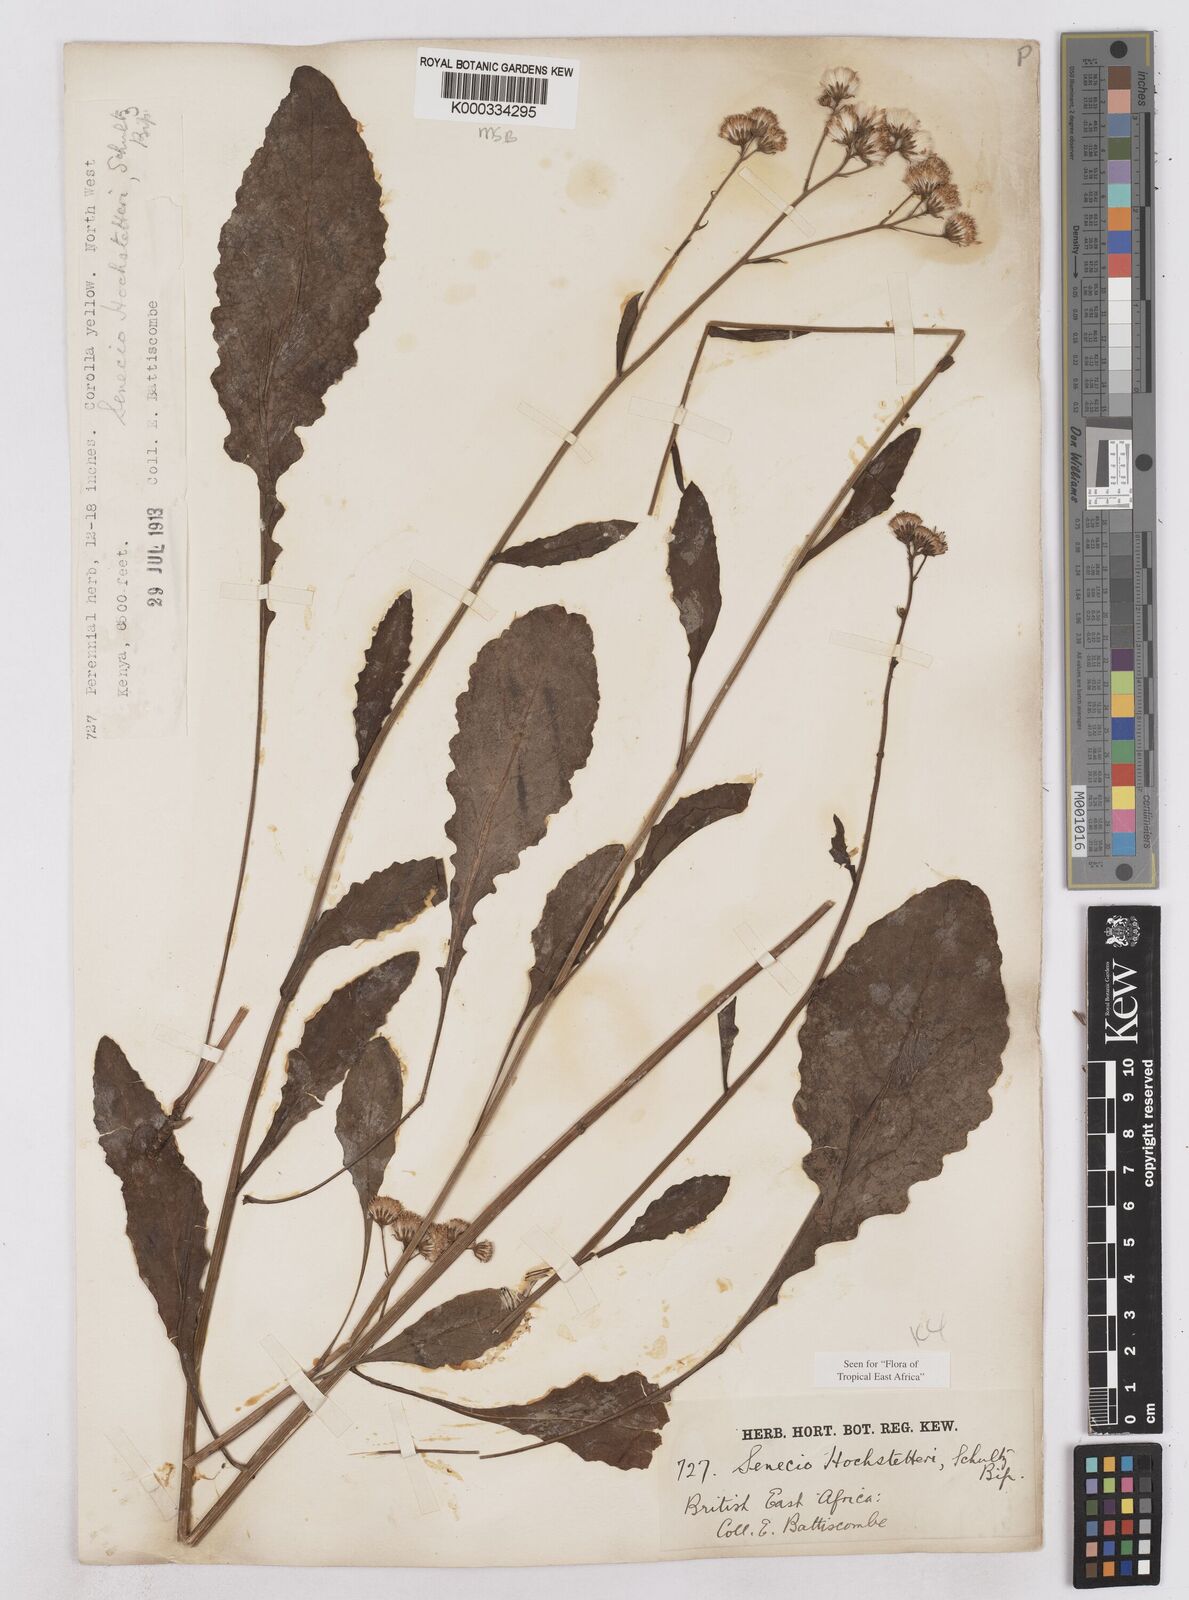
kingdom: Plantae
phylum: Tracheophyta
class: Magnoliopsida
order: Asterales
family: Asteraceae
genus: Senecio
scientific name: Senecio hochstetteri
